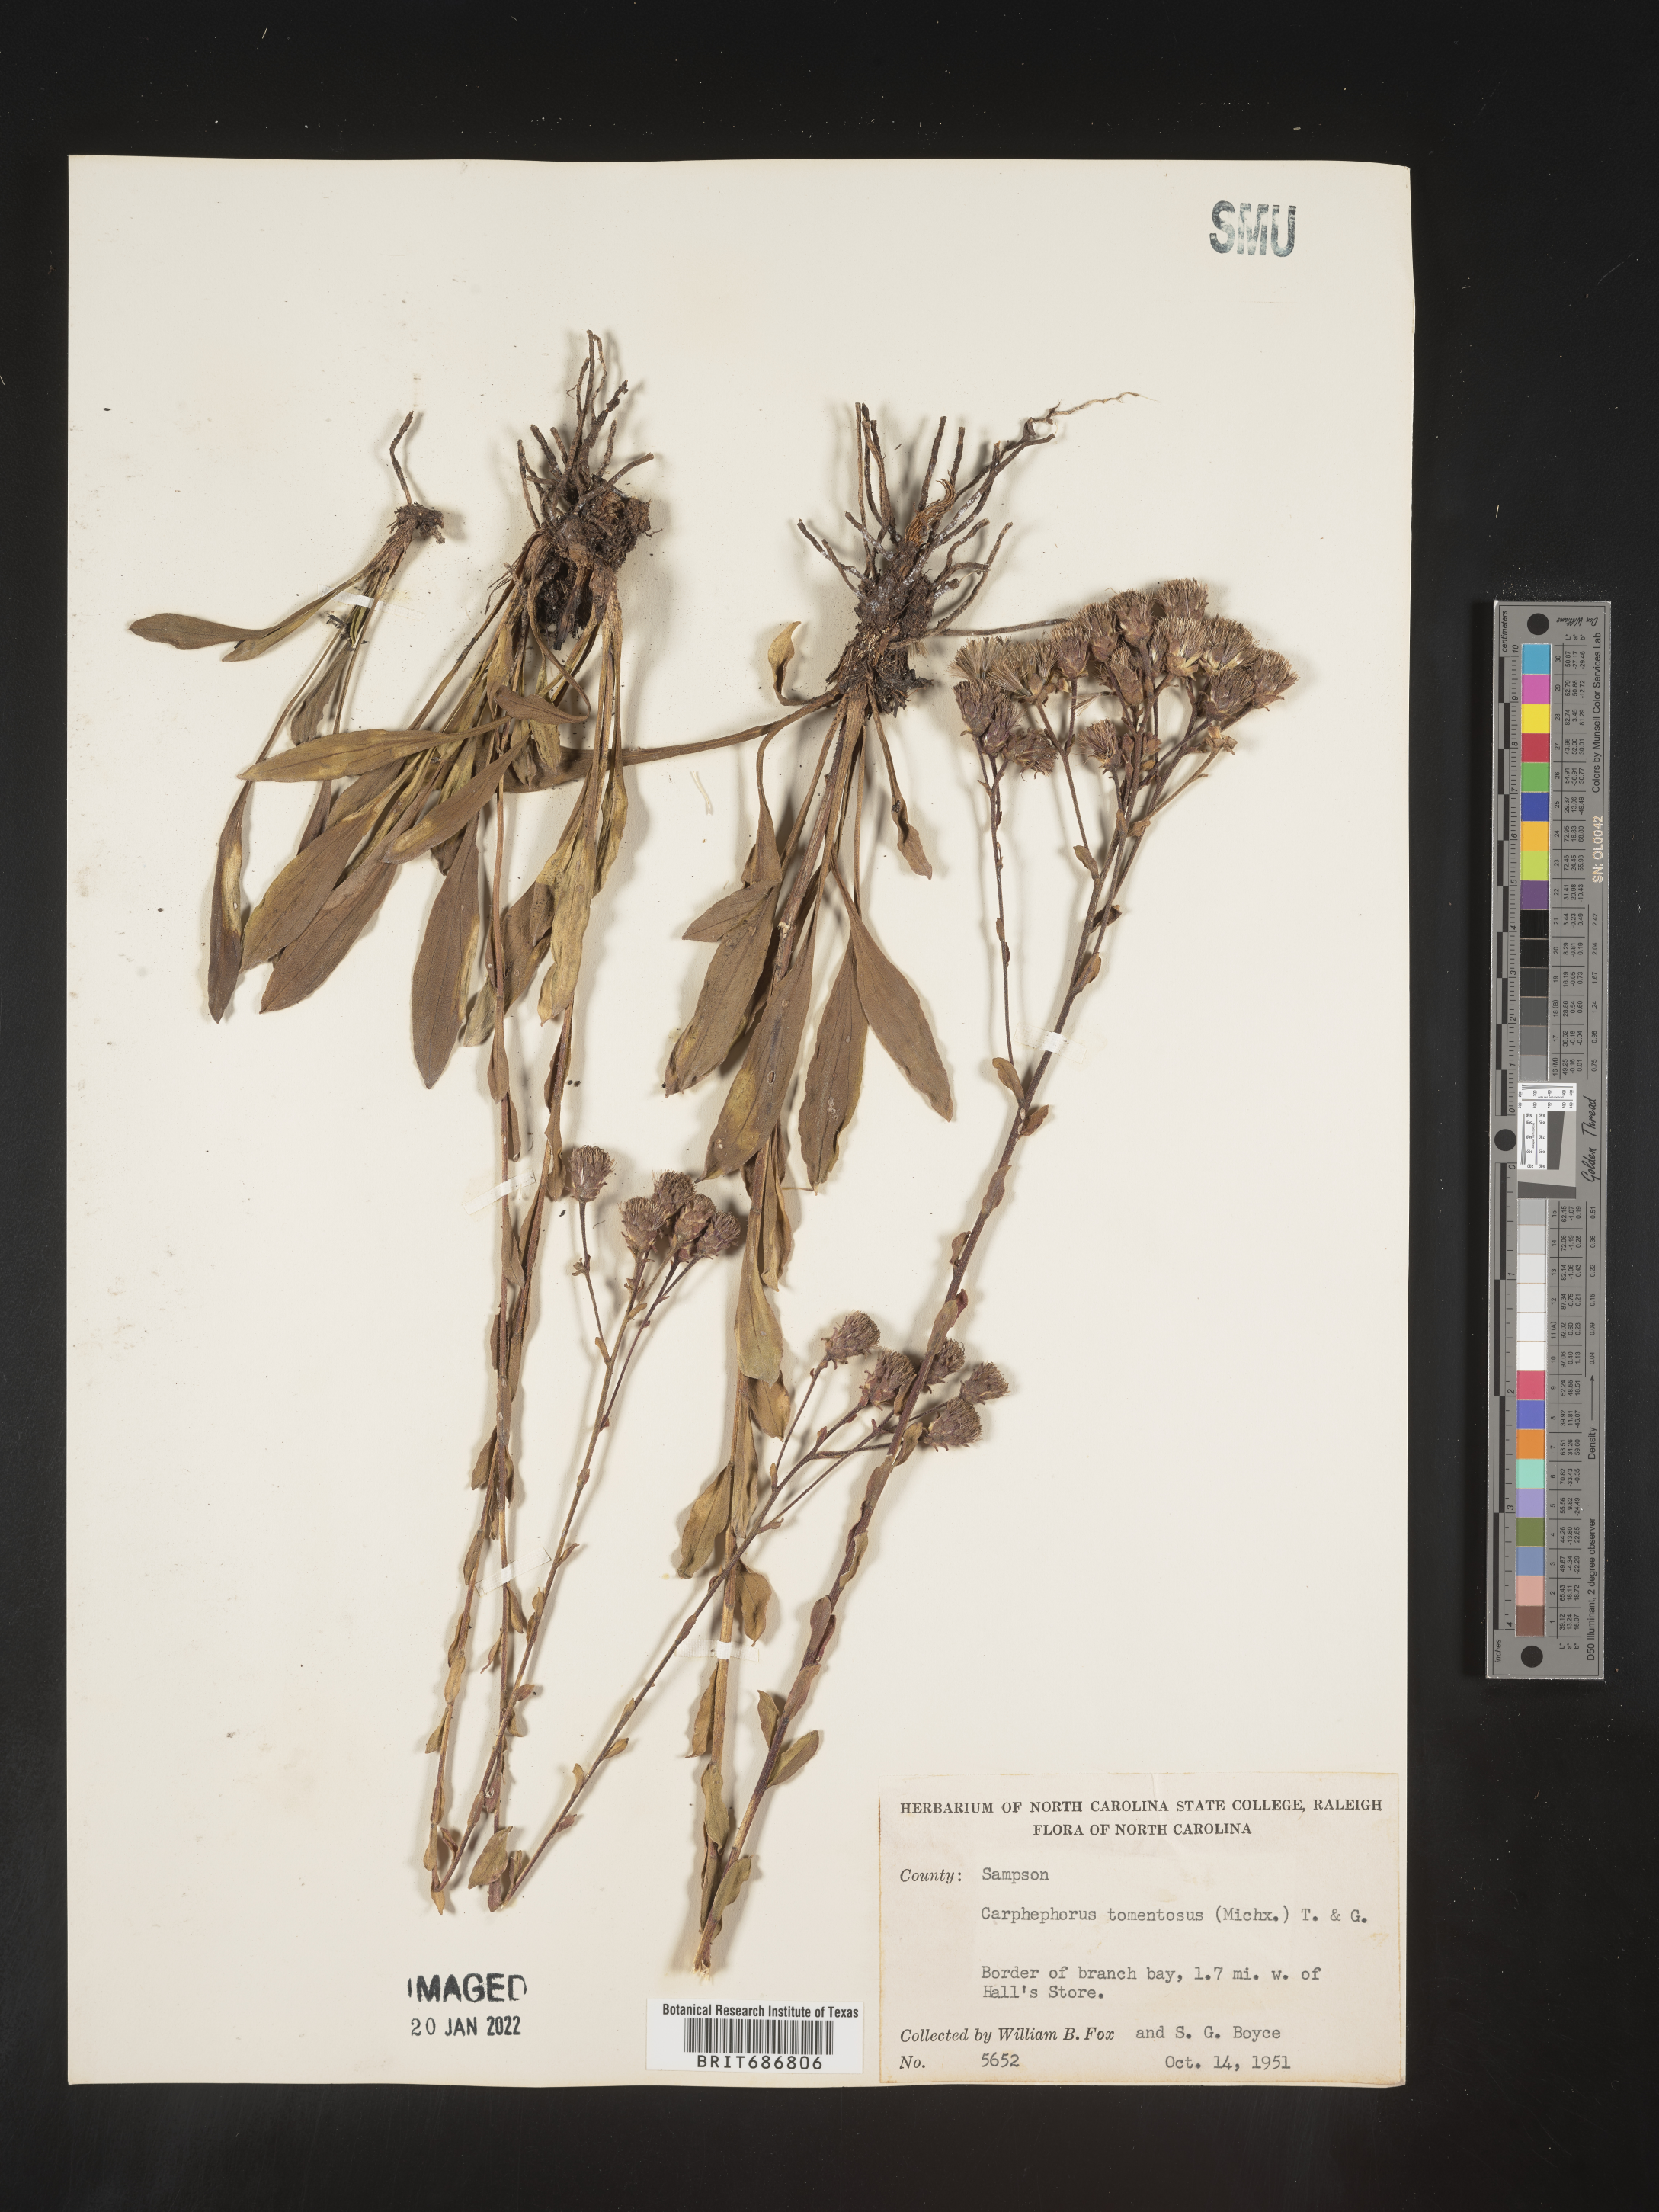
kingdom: Plantae
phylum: Tracheophyta
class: Magnoliopsida
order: Asterales
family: Asteraceae
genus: Carphephorus
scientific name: Carphephorus tomentosus
